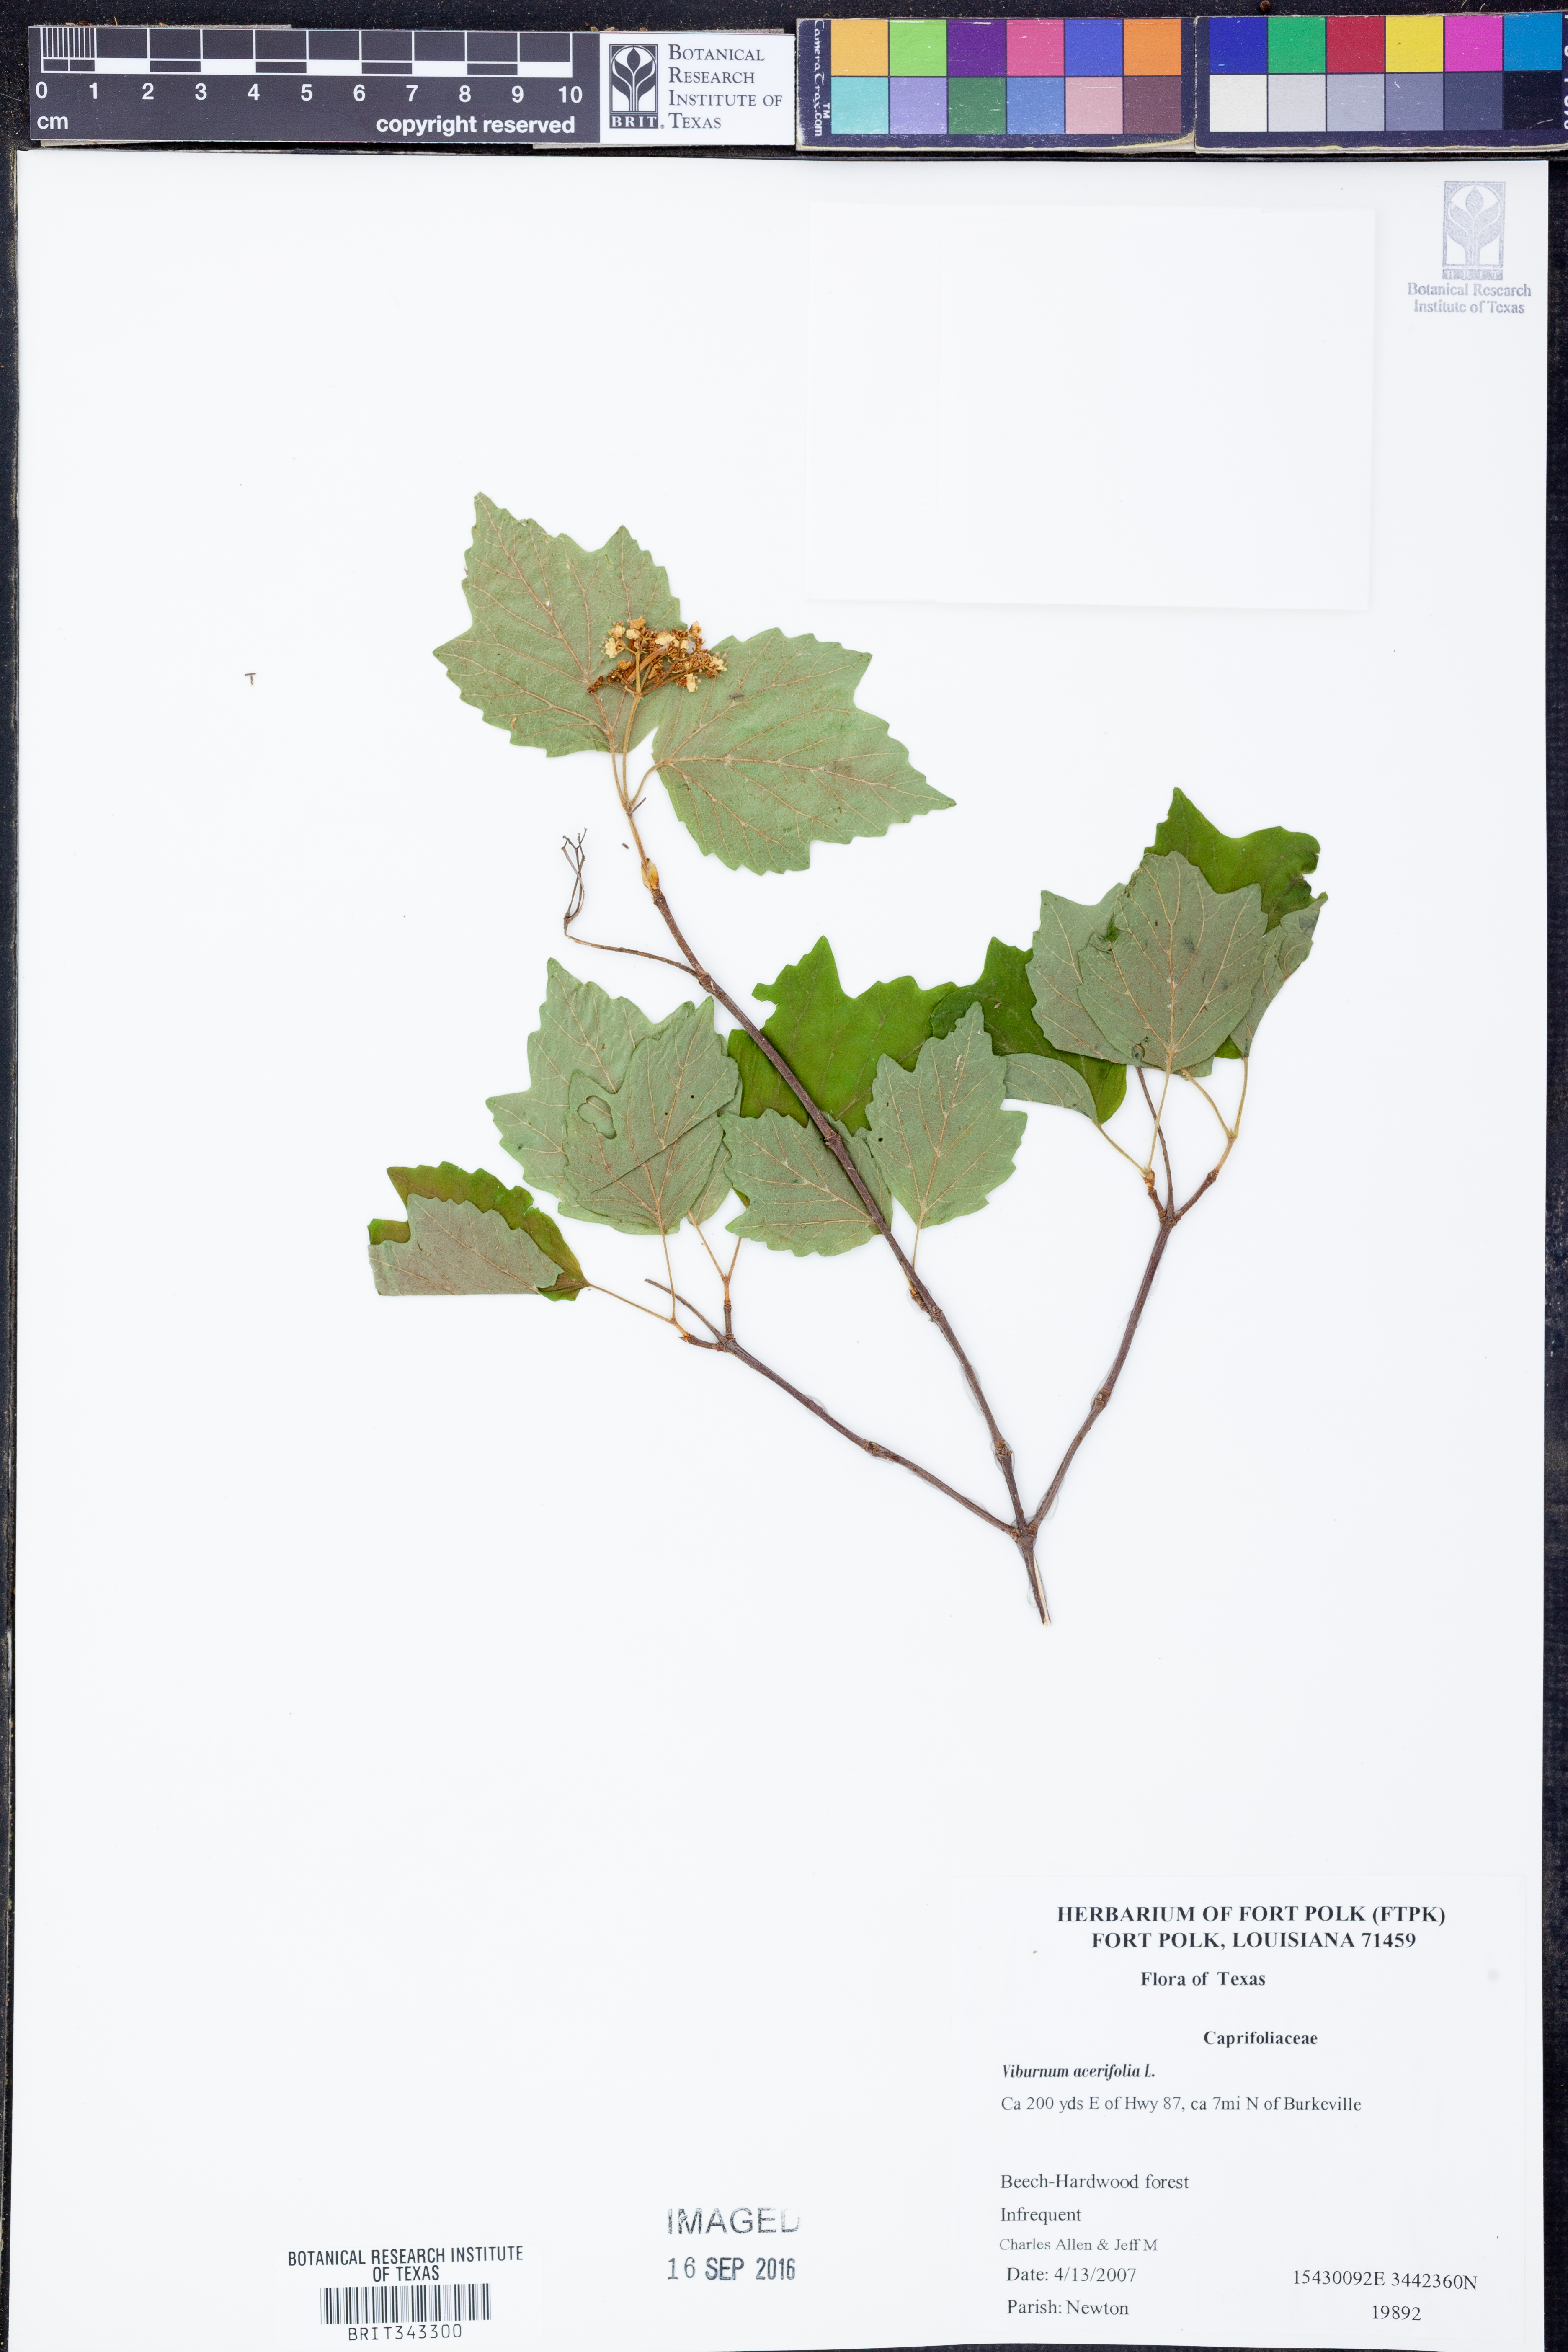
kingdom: Plantae
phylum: Tracheophyta
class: Magnoliopsida
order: Dipsacales
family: Viburnaceae
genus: Viburnum
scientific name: Viburnum acerifolium
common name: Dockmackie
